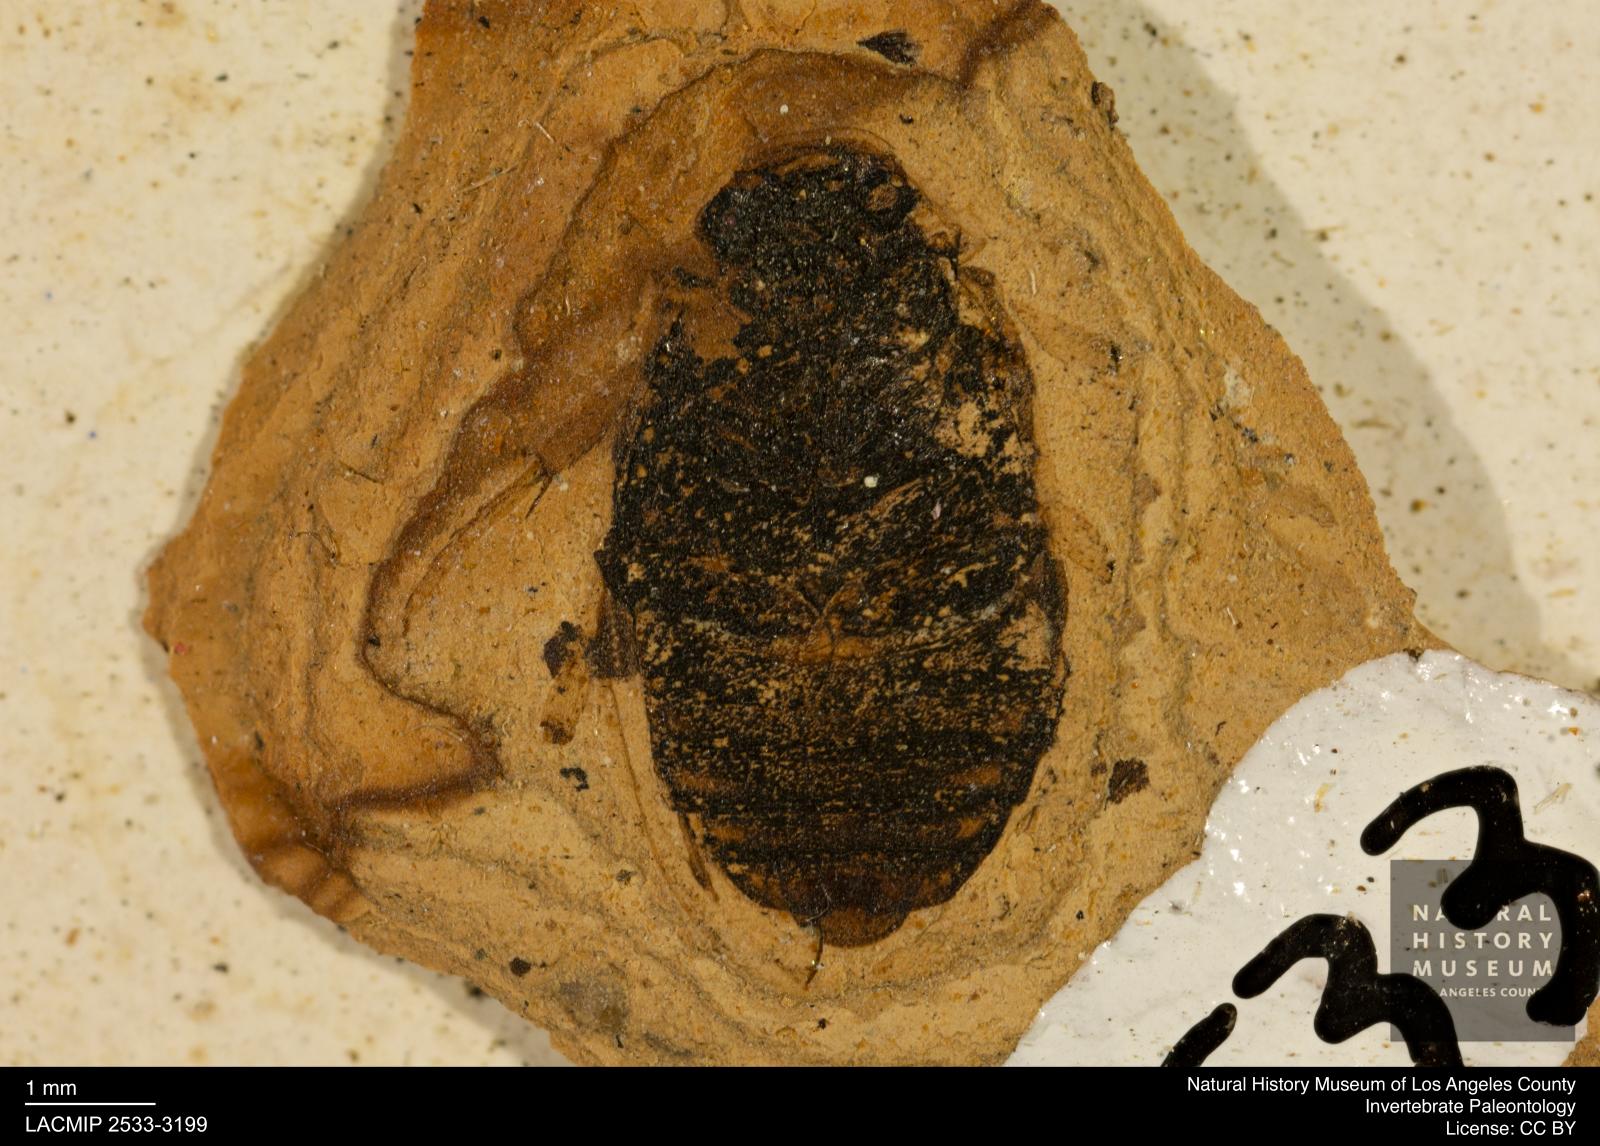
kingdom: Animalia
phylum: Arthropoda
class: Insecta
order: Coleoptera
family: Hydrophilidae
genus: Berosus
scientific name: Berosus morticinus
